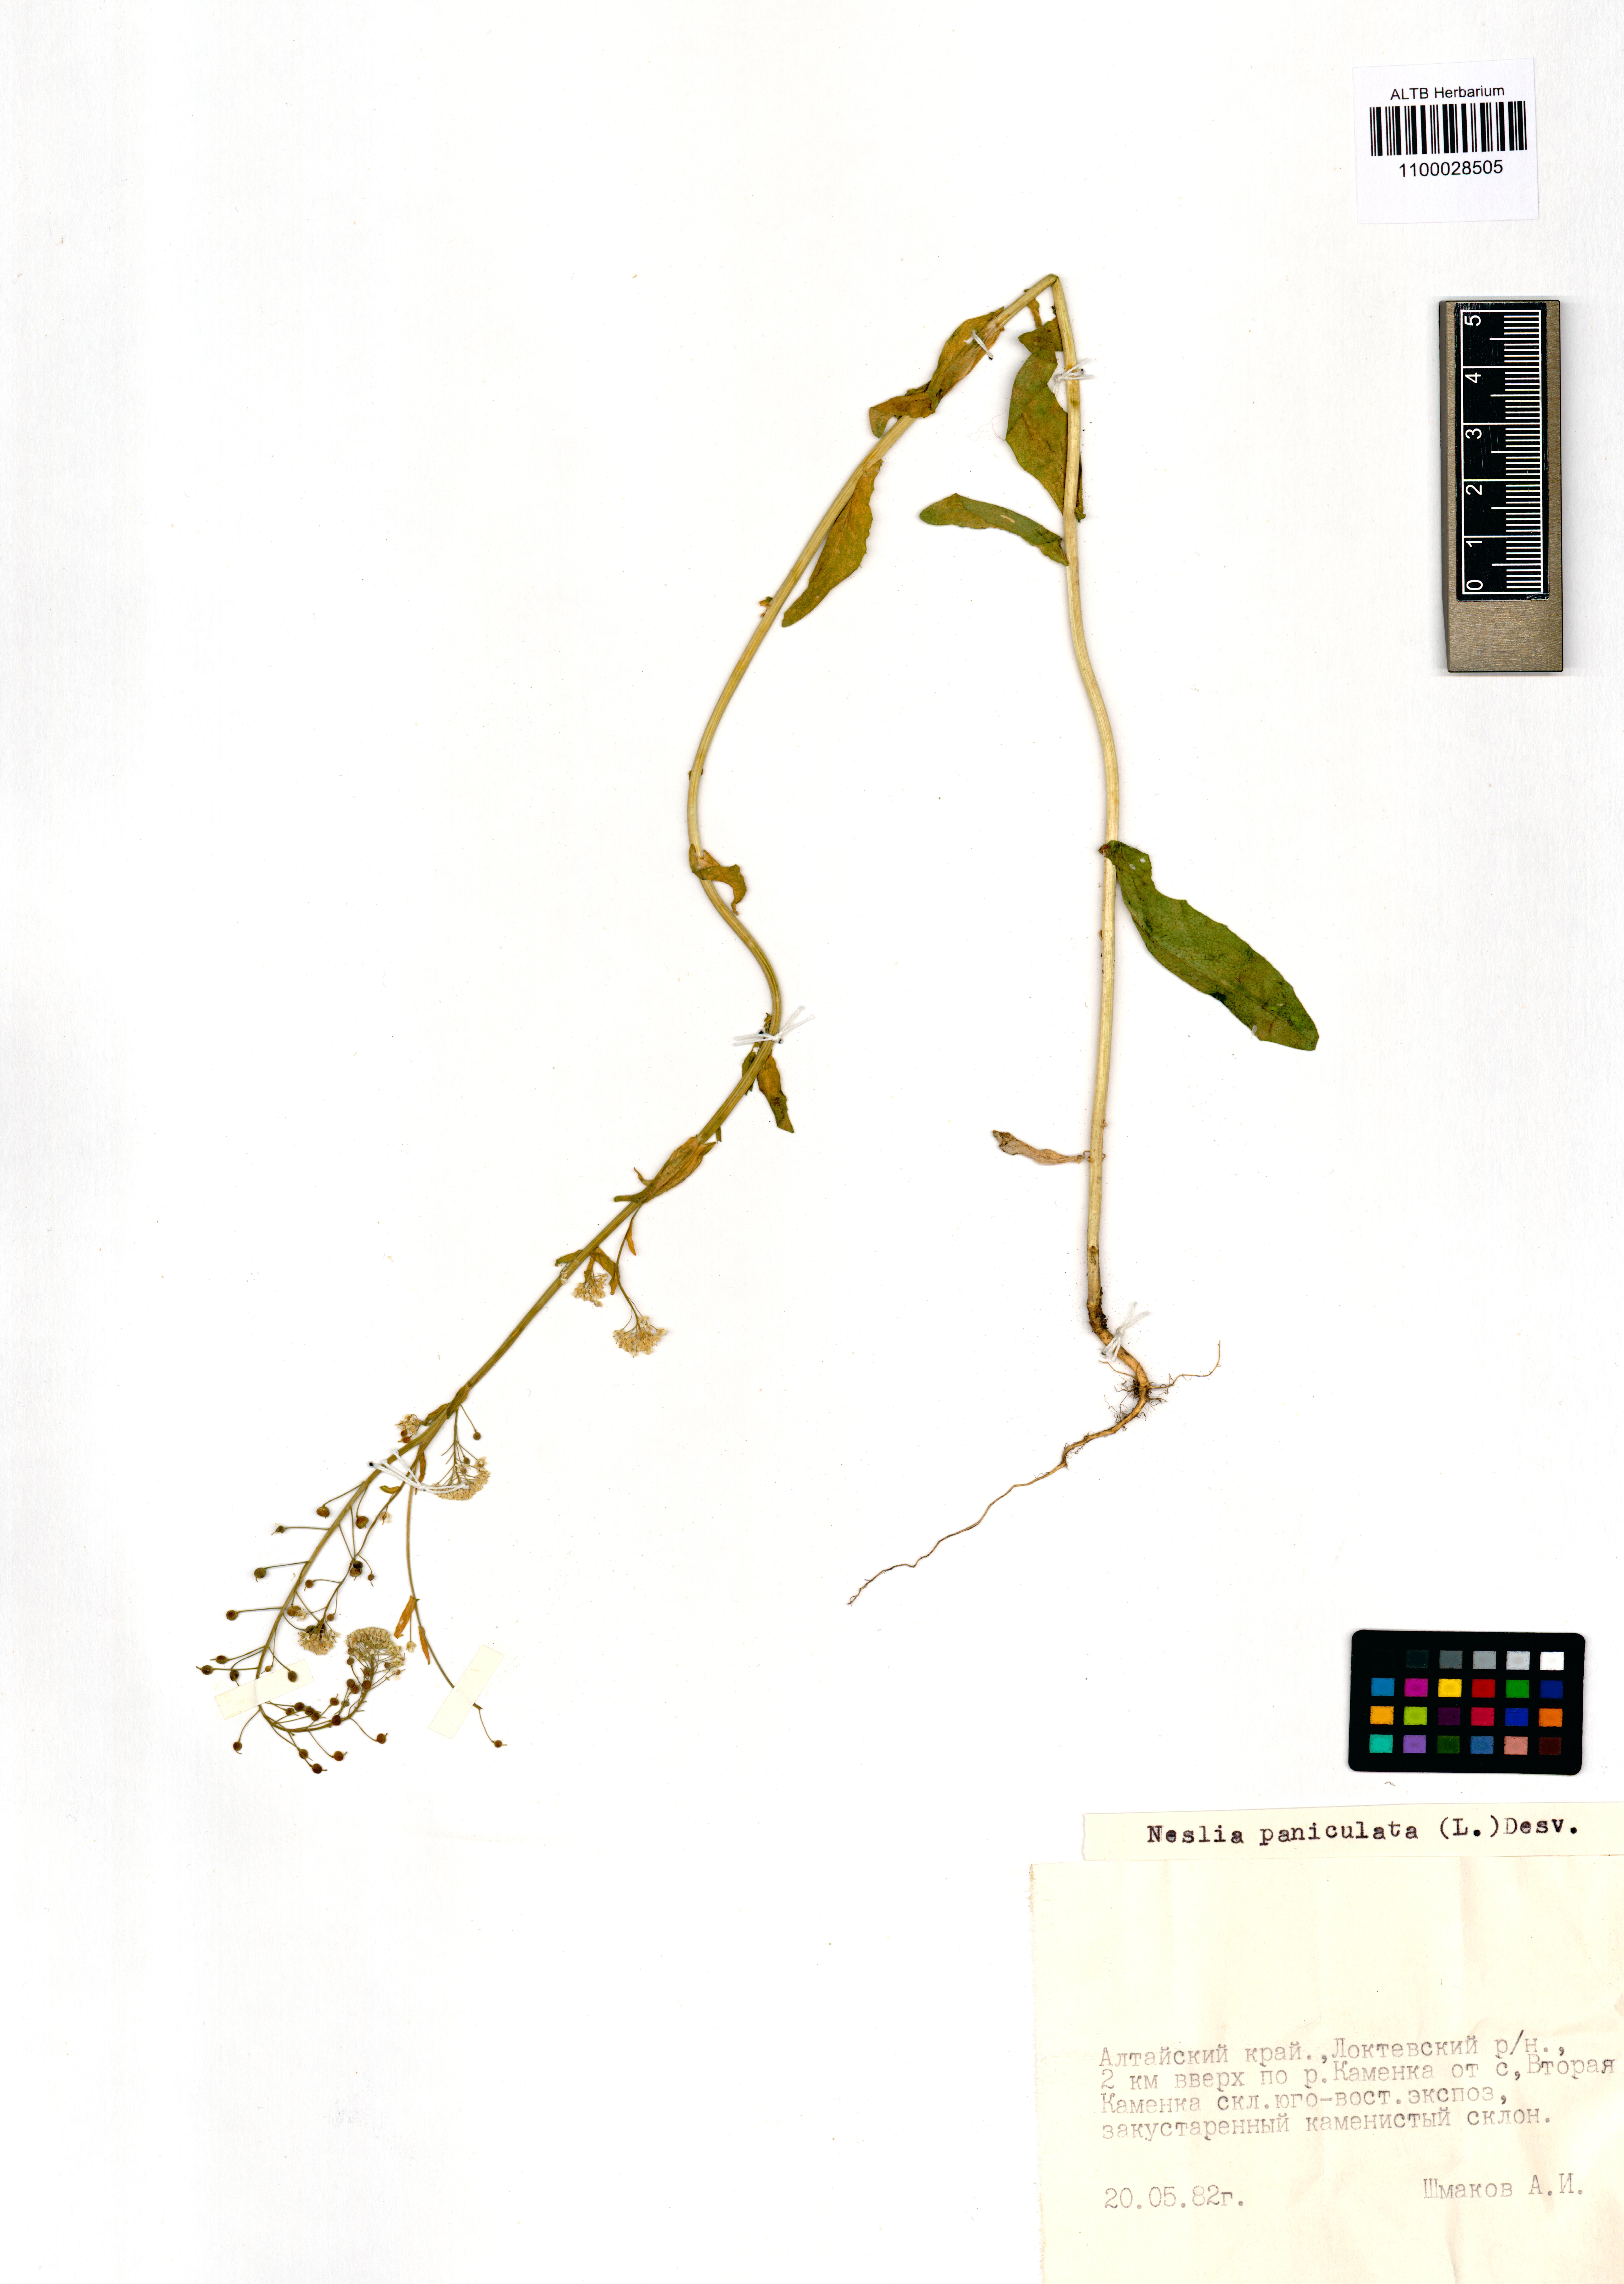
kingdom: Plantae
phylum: Tracheophyta
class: Magnoliopsida
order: Brassicales
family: Brassicaceae
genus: Neslia
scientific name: Neslia paniculata
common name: Ball mustard
